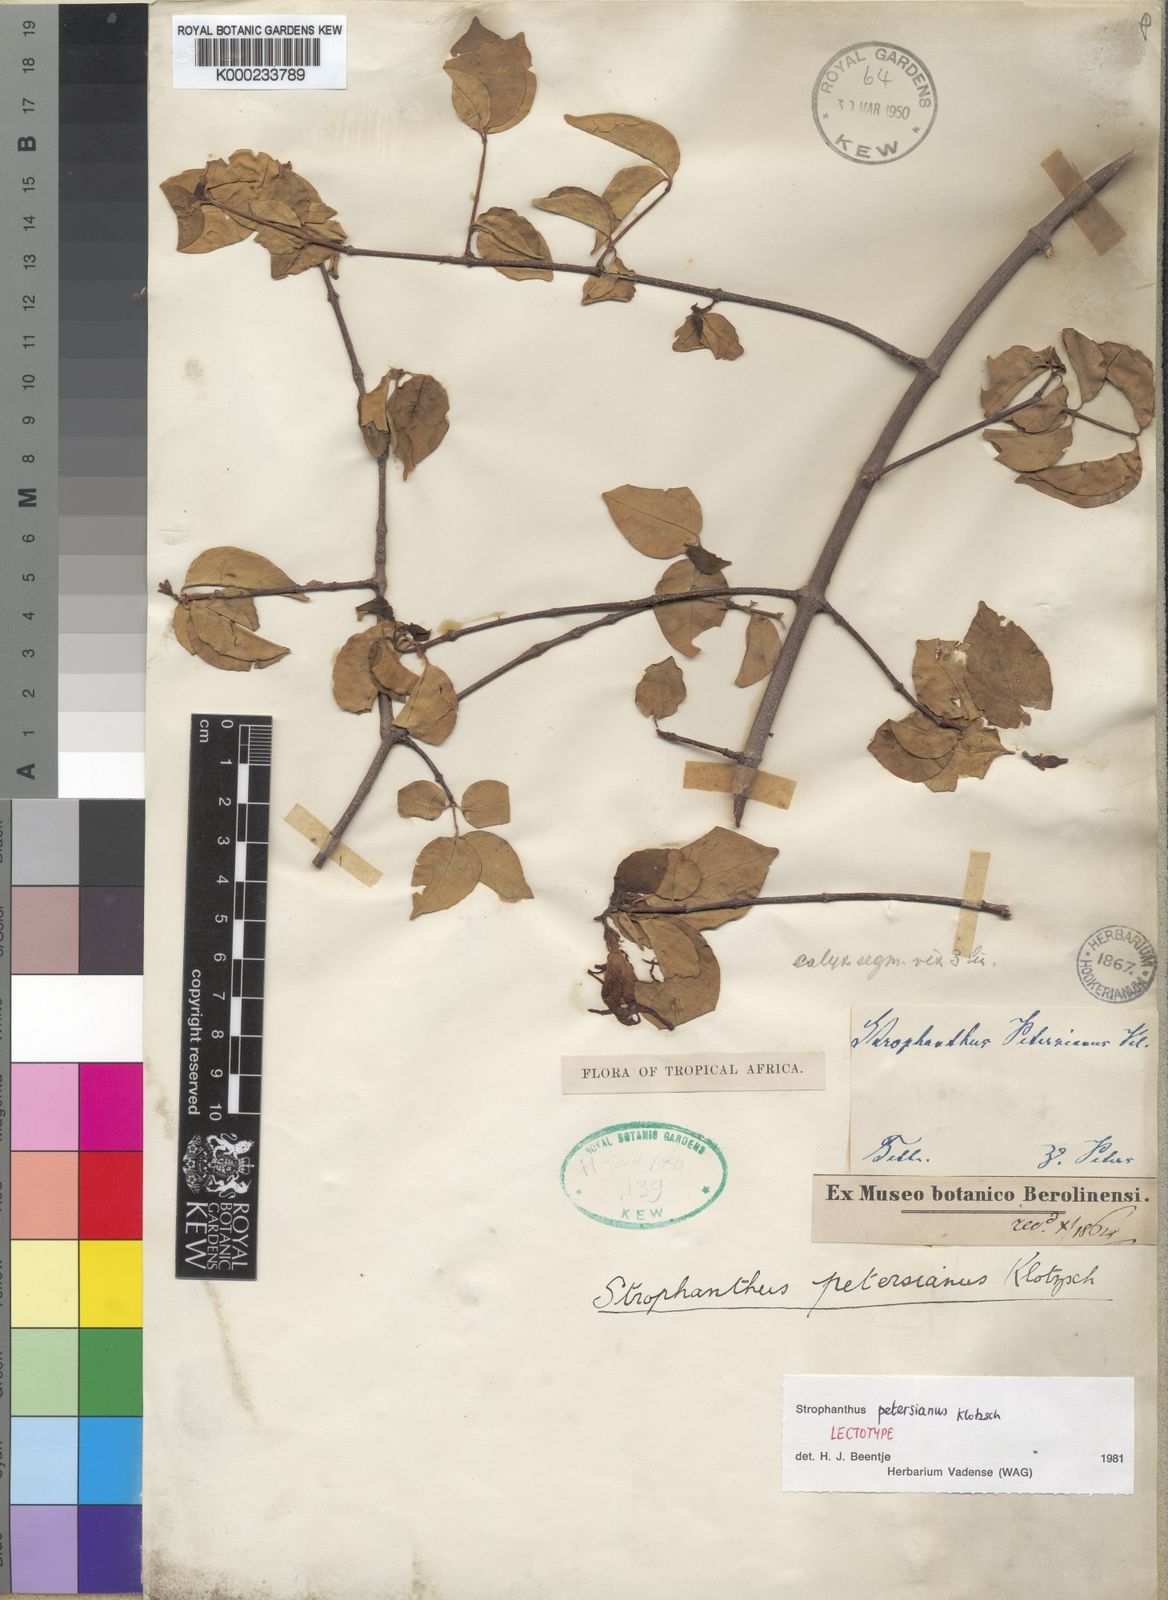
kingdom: Plantae
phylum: Tracheophyta
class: Magnoliopsida
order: Gentianales
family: Apocynaceae
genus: Strophanthus
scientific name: Strophanthus petersianus
